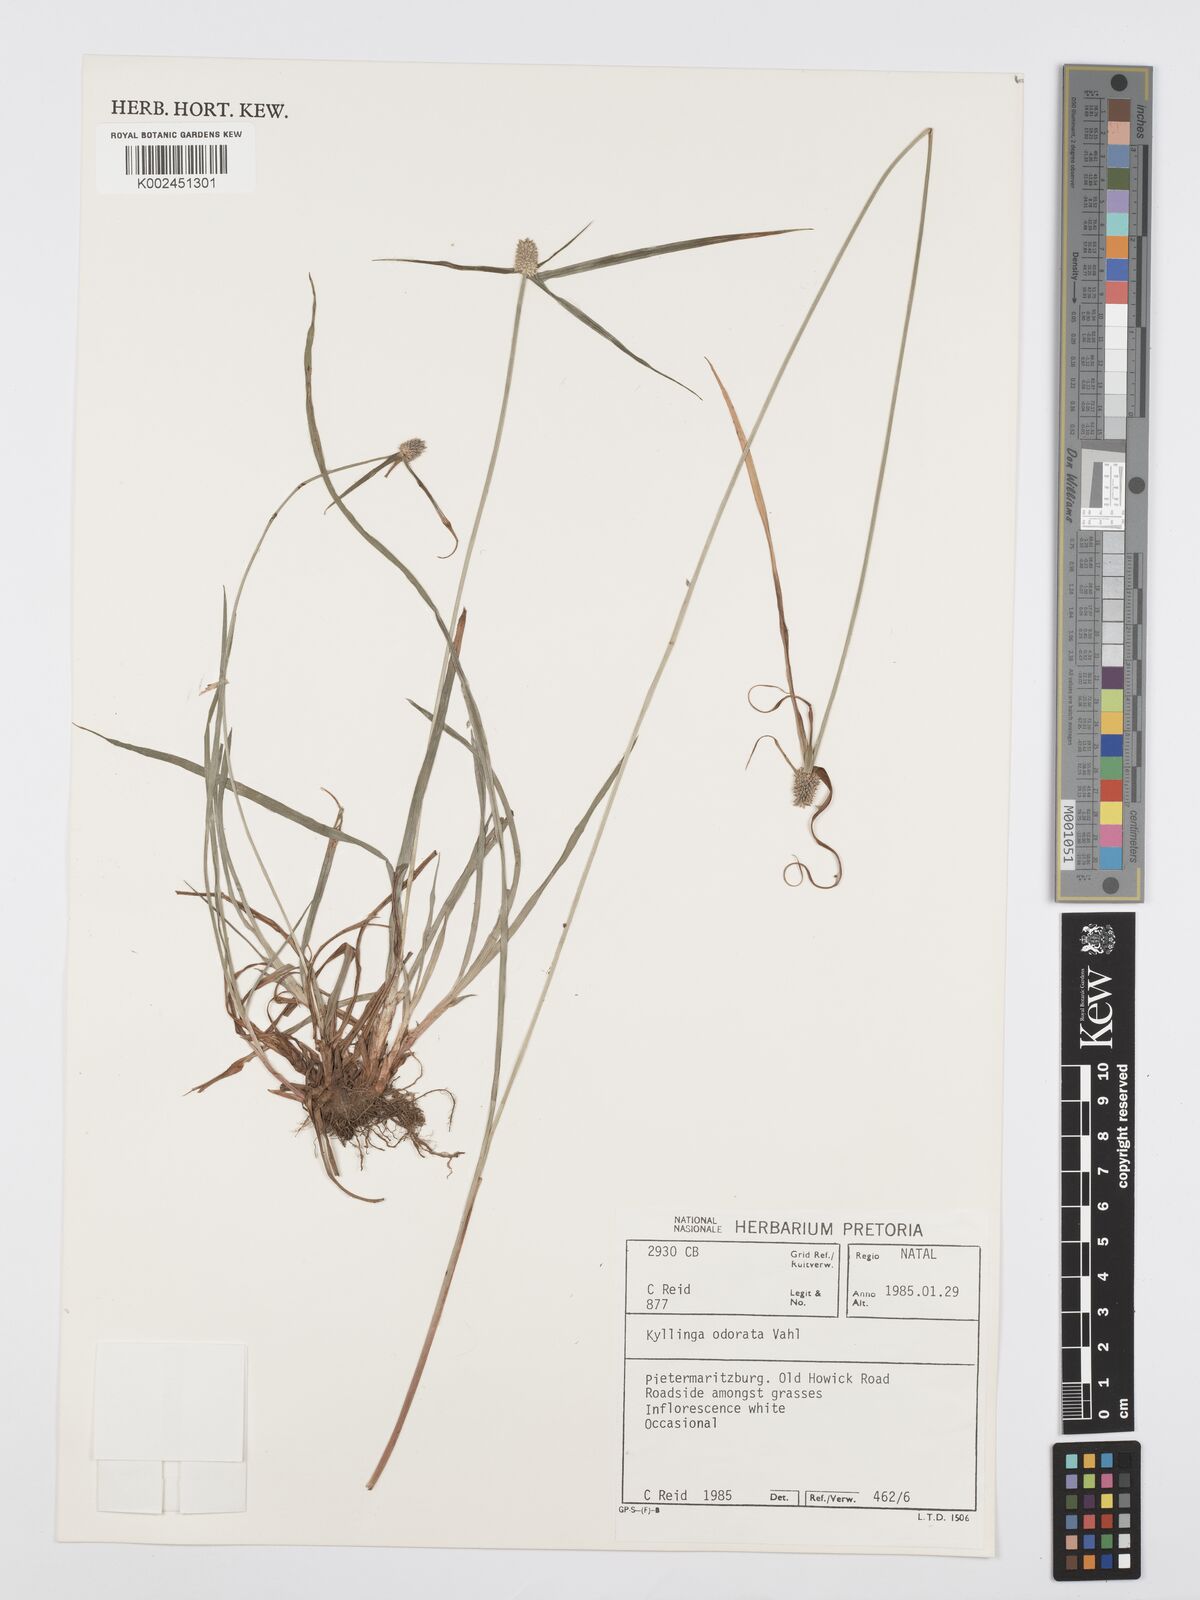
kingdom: Plantae
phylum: Tracheophyta
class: Liliopsida
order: Poales
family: Cyperaceae
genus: Cyperus
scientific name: Cyperus
